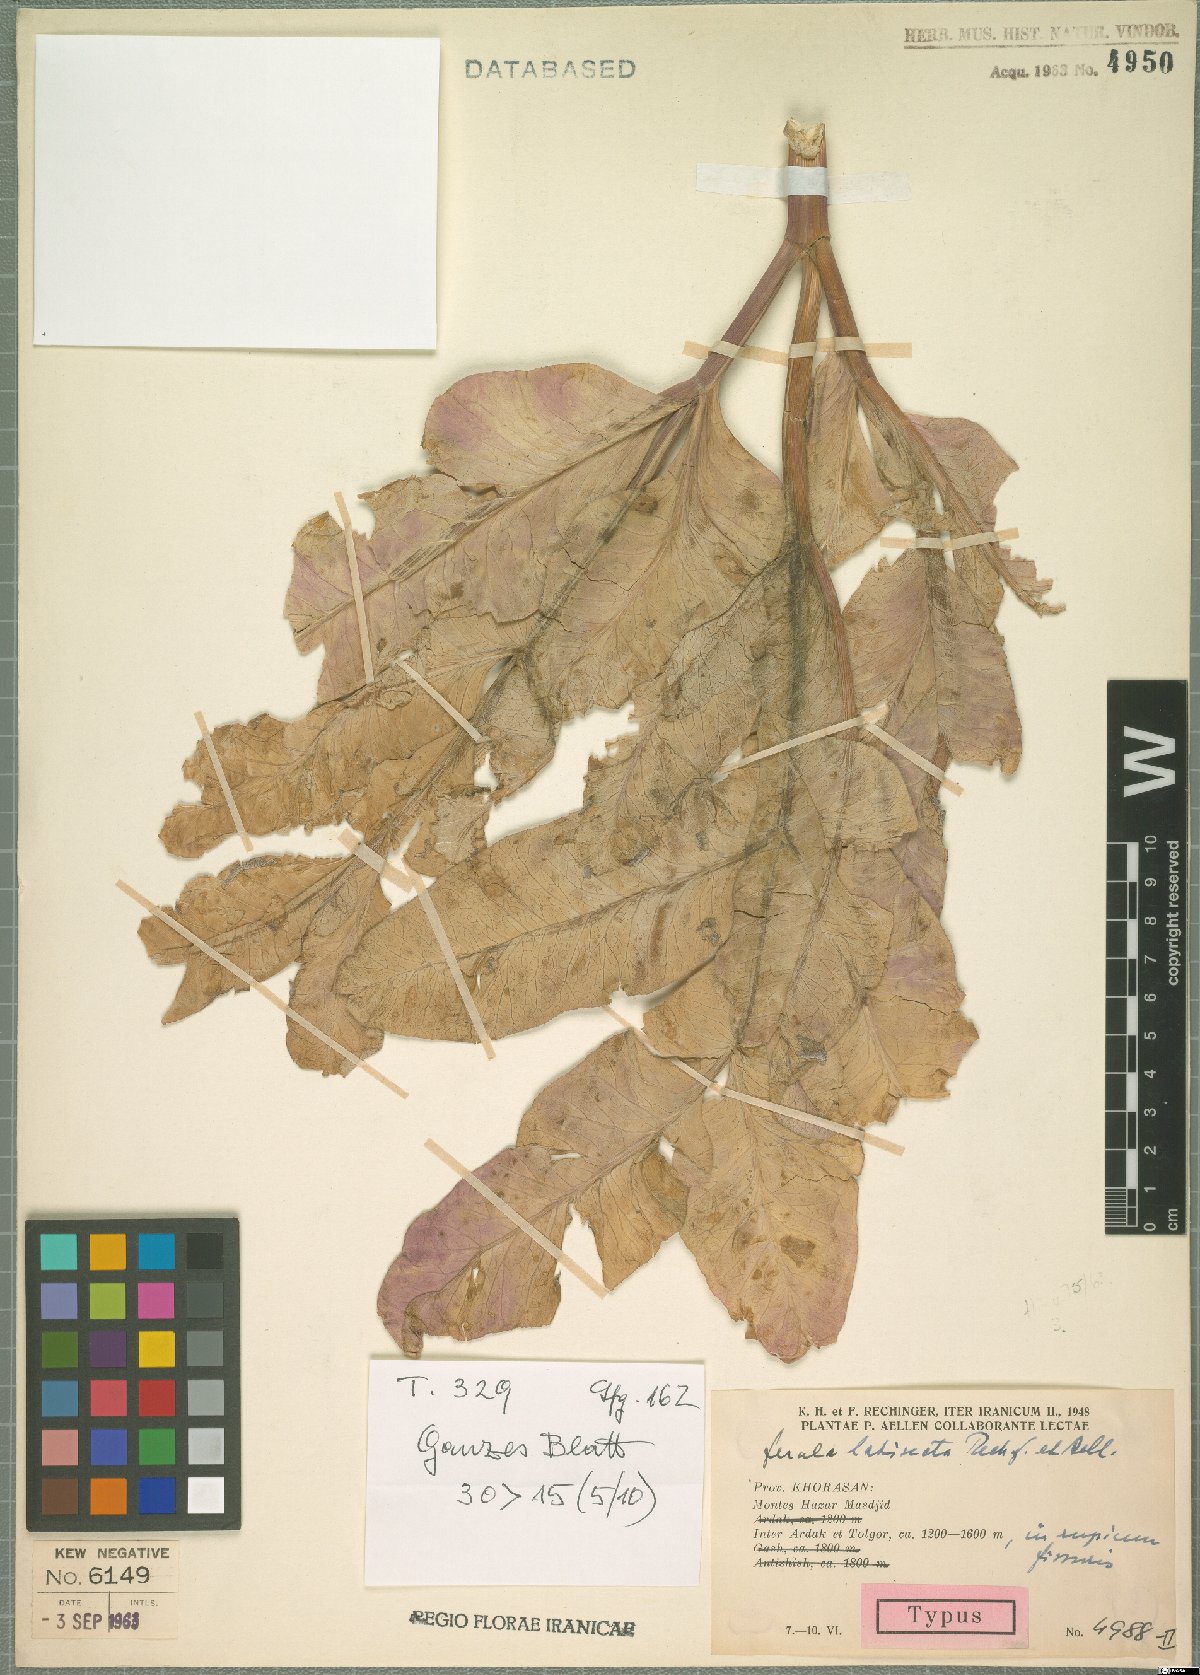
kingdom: Plantae
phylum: Tracheophyta
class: Magnoliopsida
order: Apiales
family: Apiaceae
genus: Ferula
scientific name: Ferula latisecta
